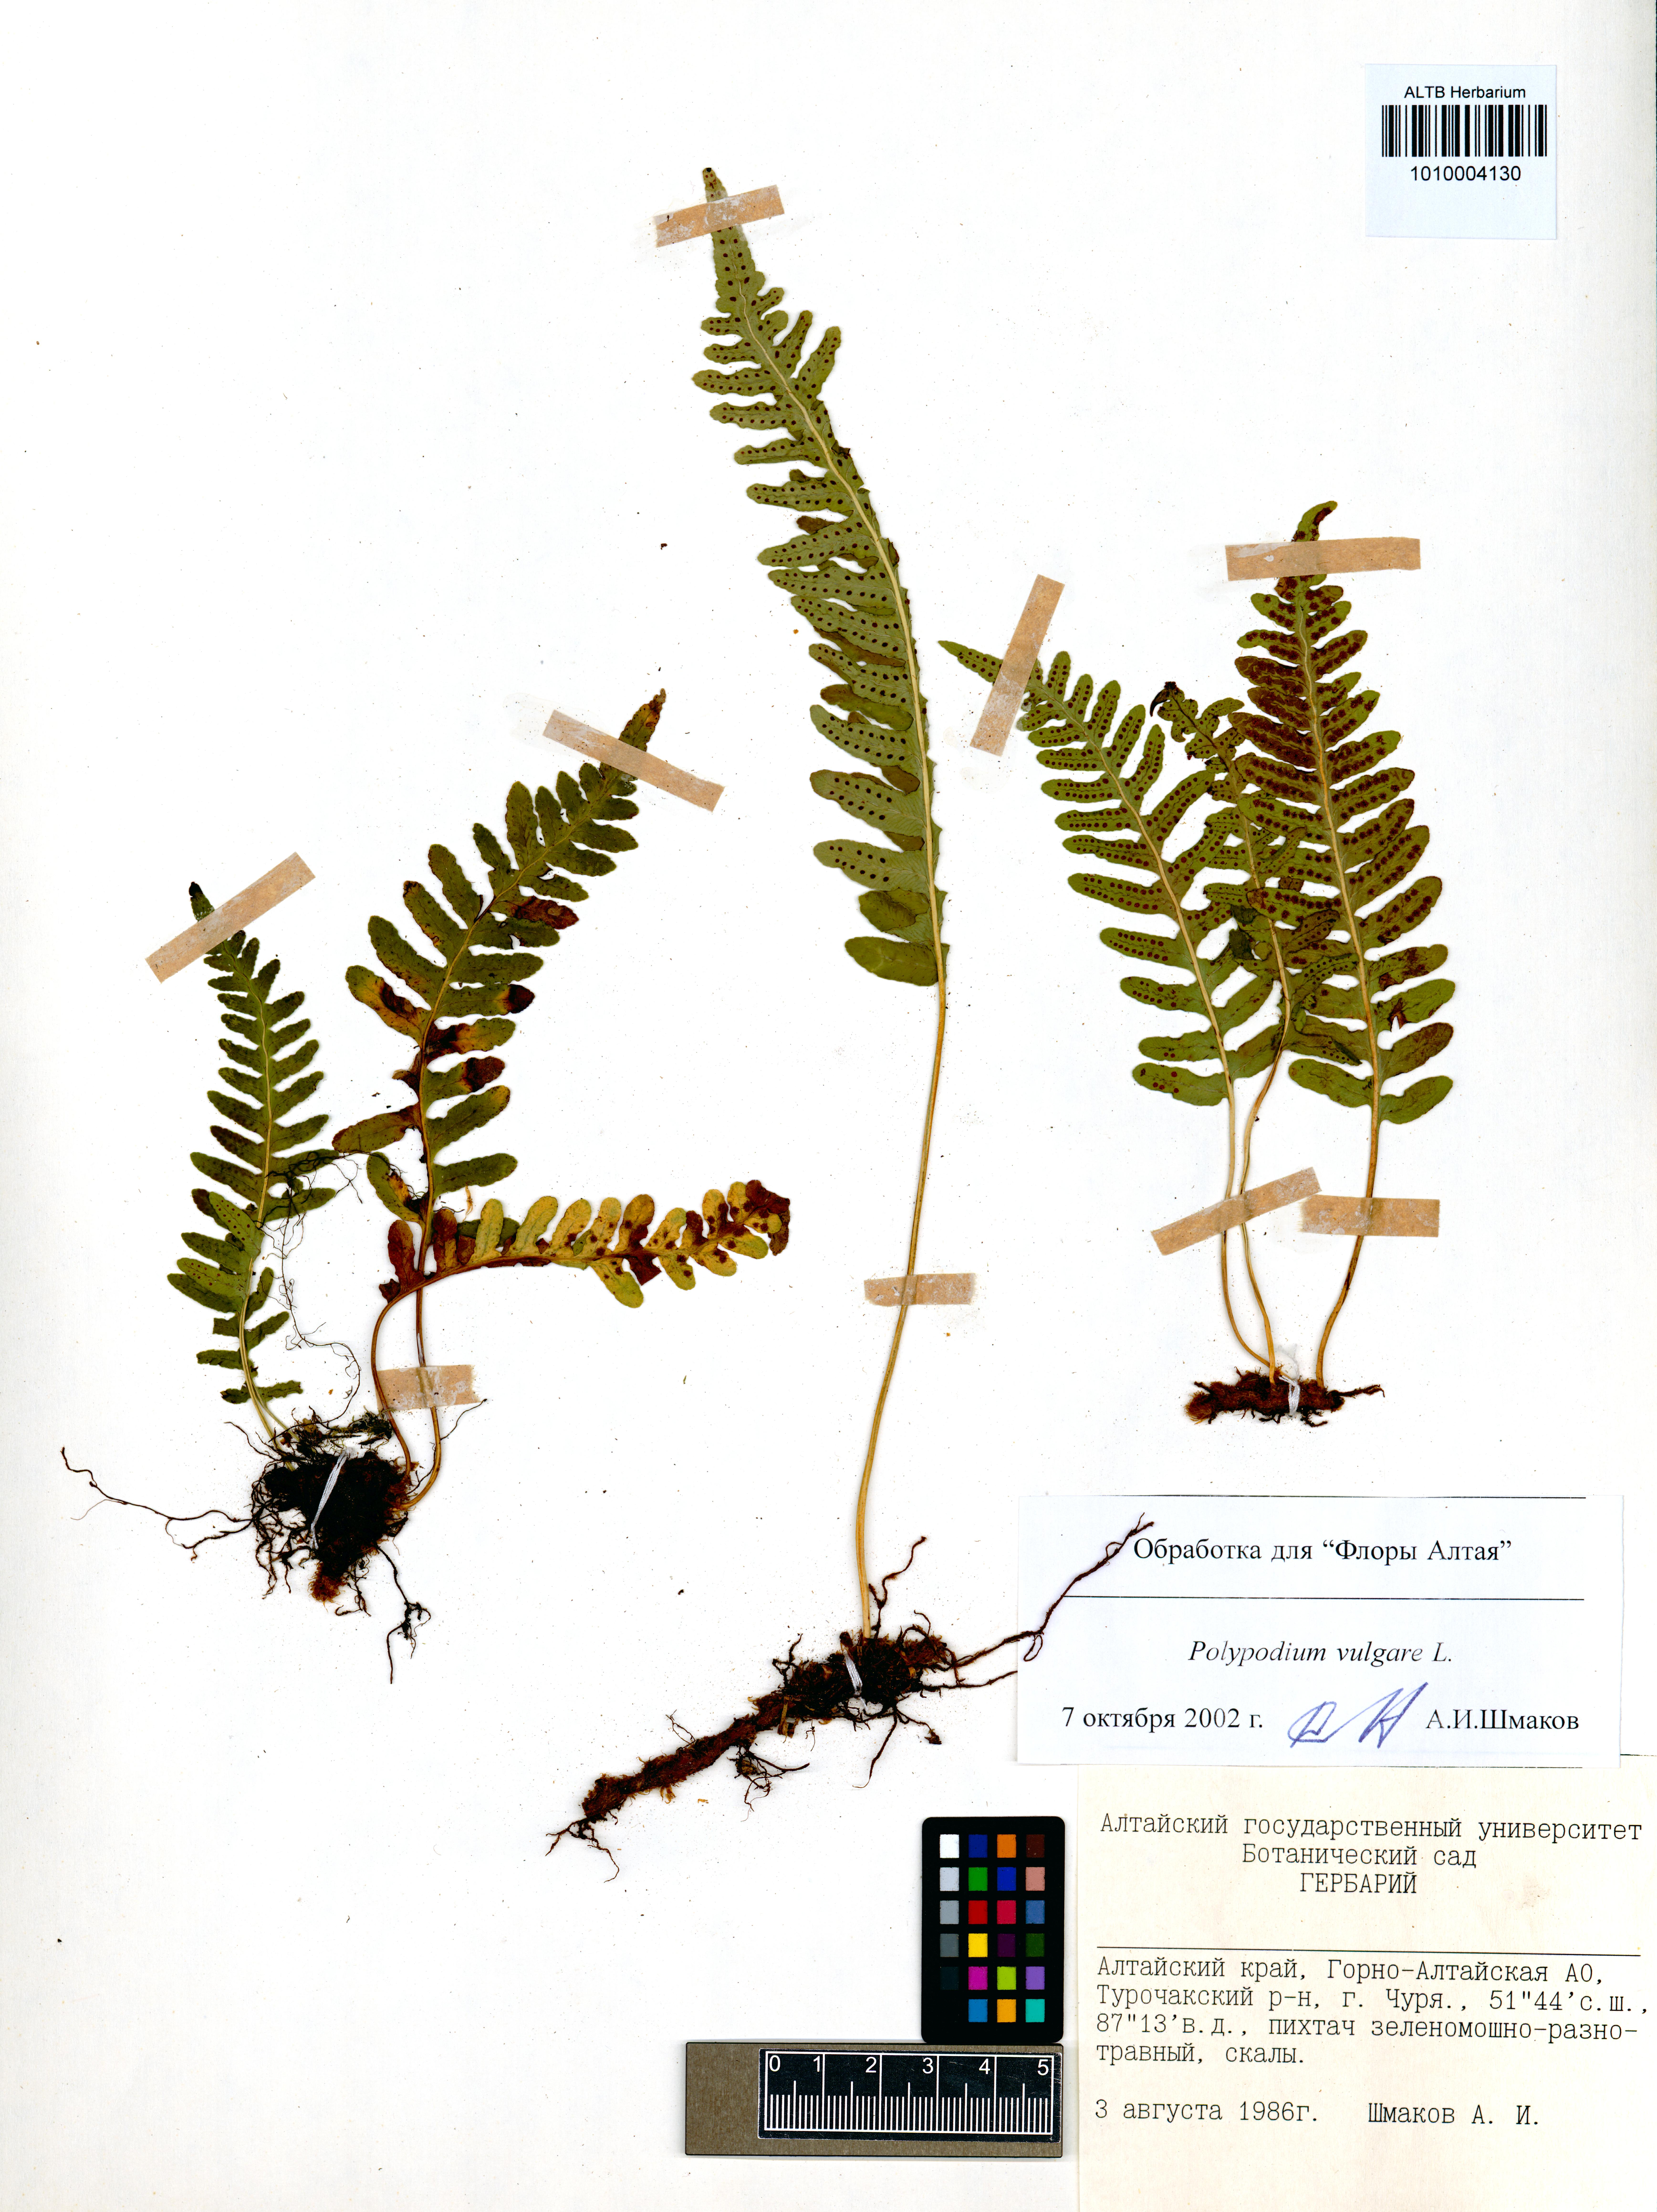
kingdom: Plantae
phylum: Tracheophyta
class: Polypodiopsida
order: Polypodiales
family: Polypodiaceae
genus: Polypodium
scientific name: Polypodium vulgare
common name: Common polypody
